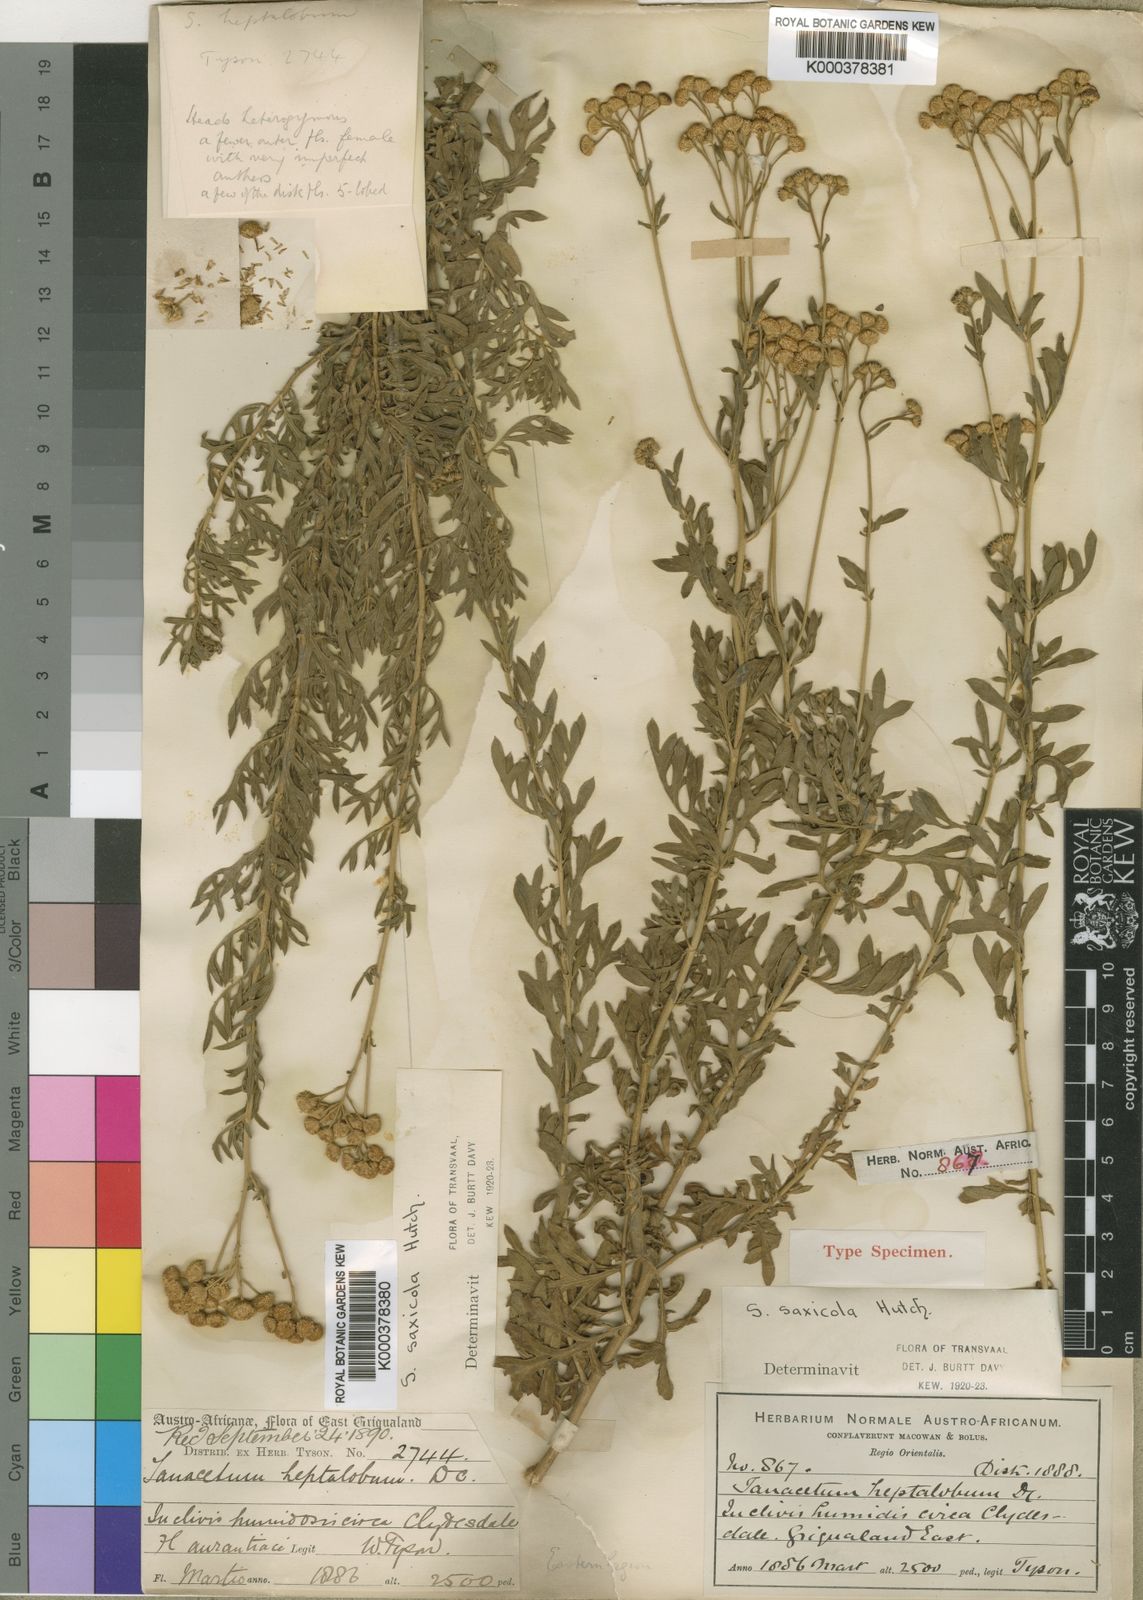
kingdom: Plantae
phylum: Tracheophyta
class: Magnoliopsida
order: Asterales
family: Asteraceae
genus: Schistostephium
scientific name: Schistostephium crataegifolium
